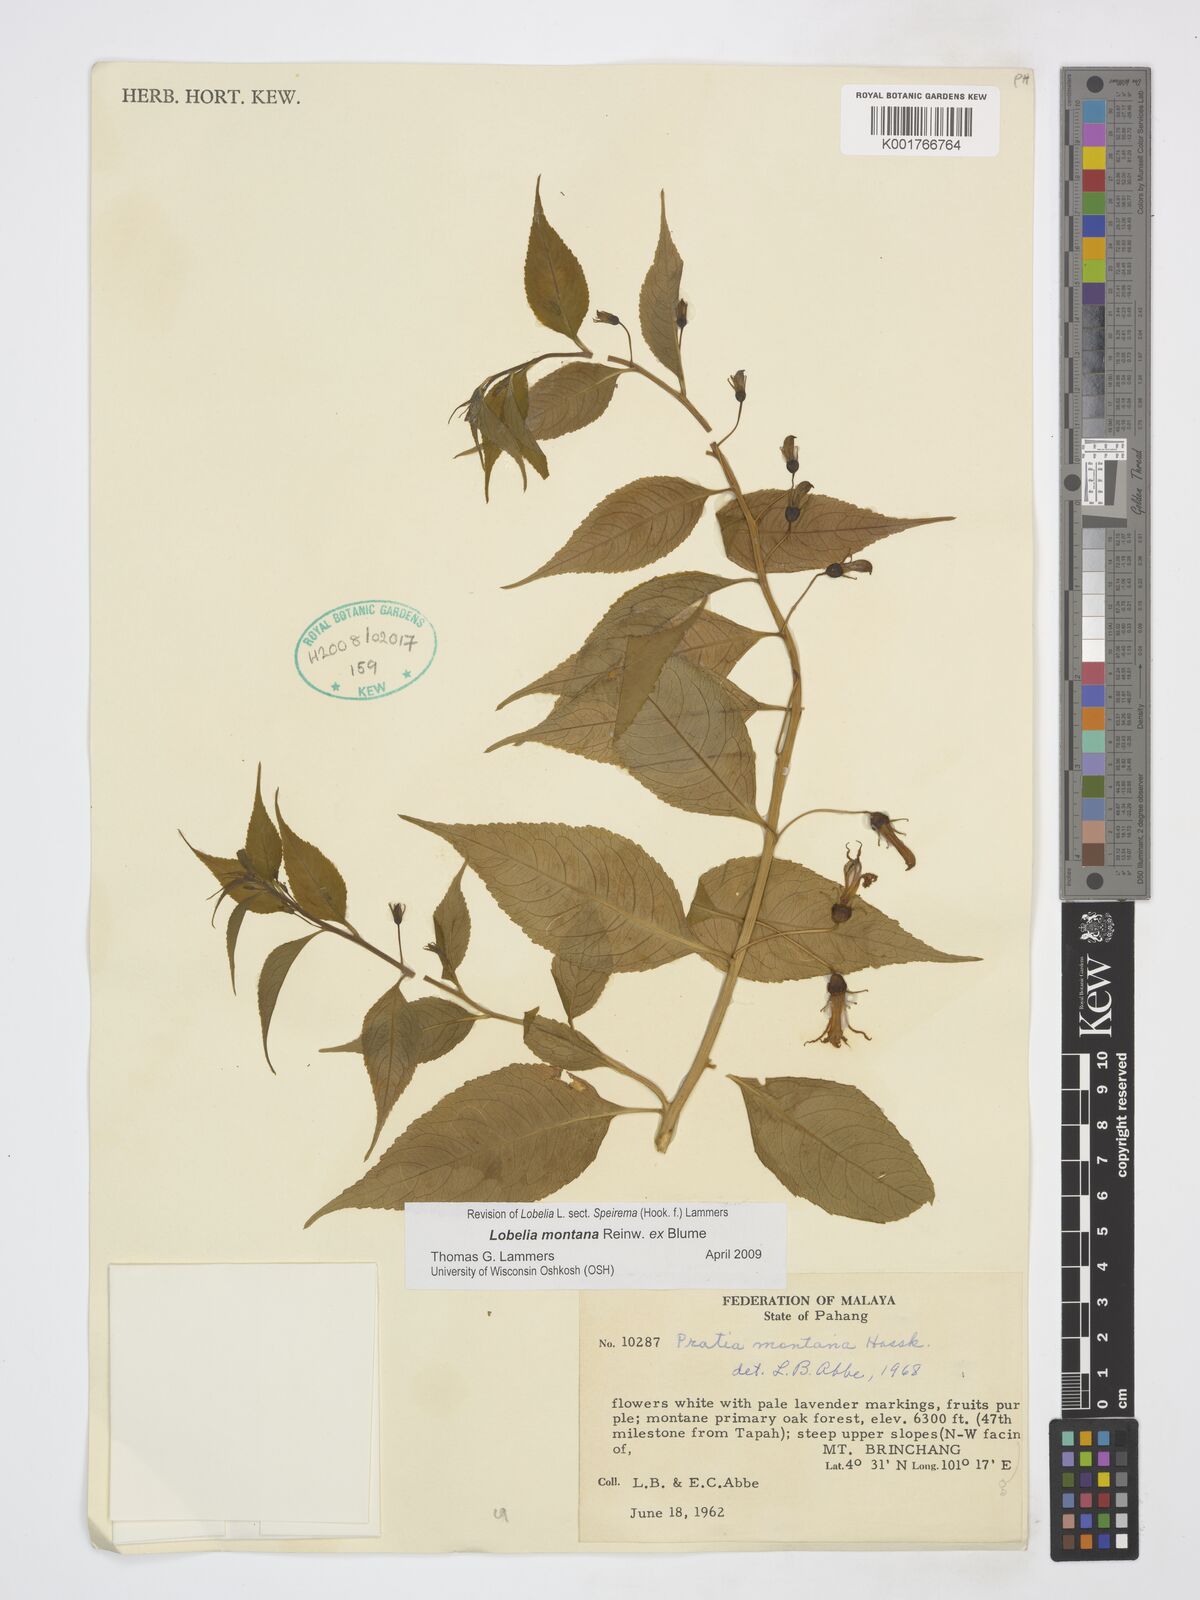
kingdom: Plantae
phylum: Tracheophyta
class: Magnoliopsida
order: Asterales
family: Campanulaceae
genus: Lobelia
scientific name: Lobelia montana
